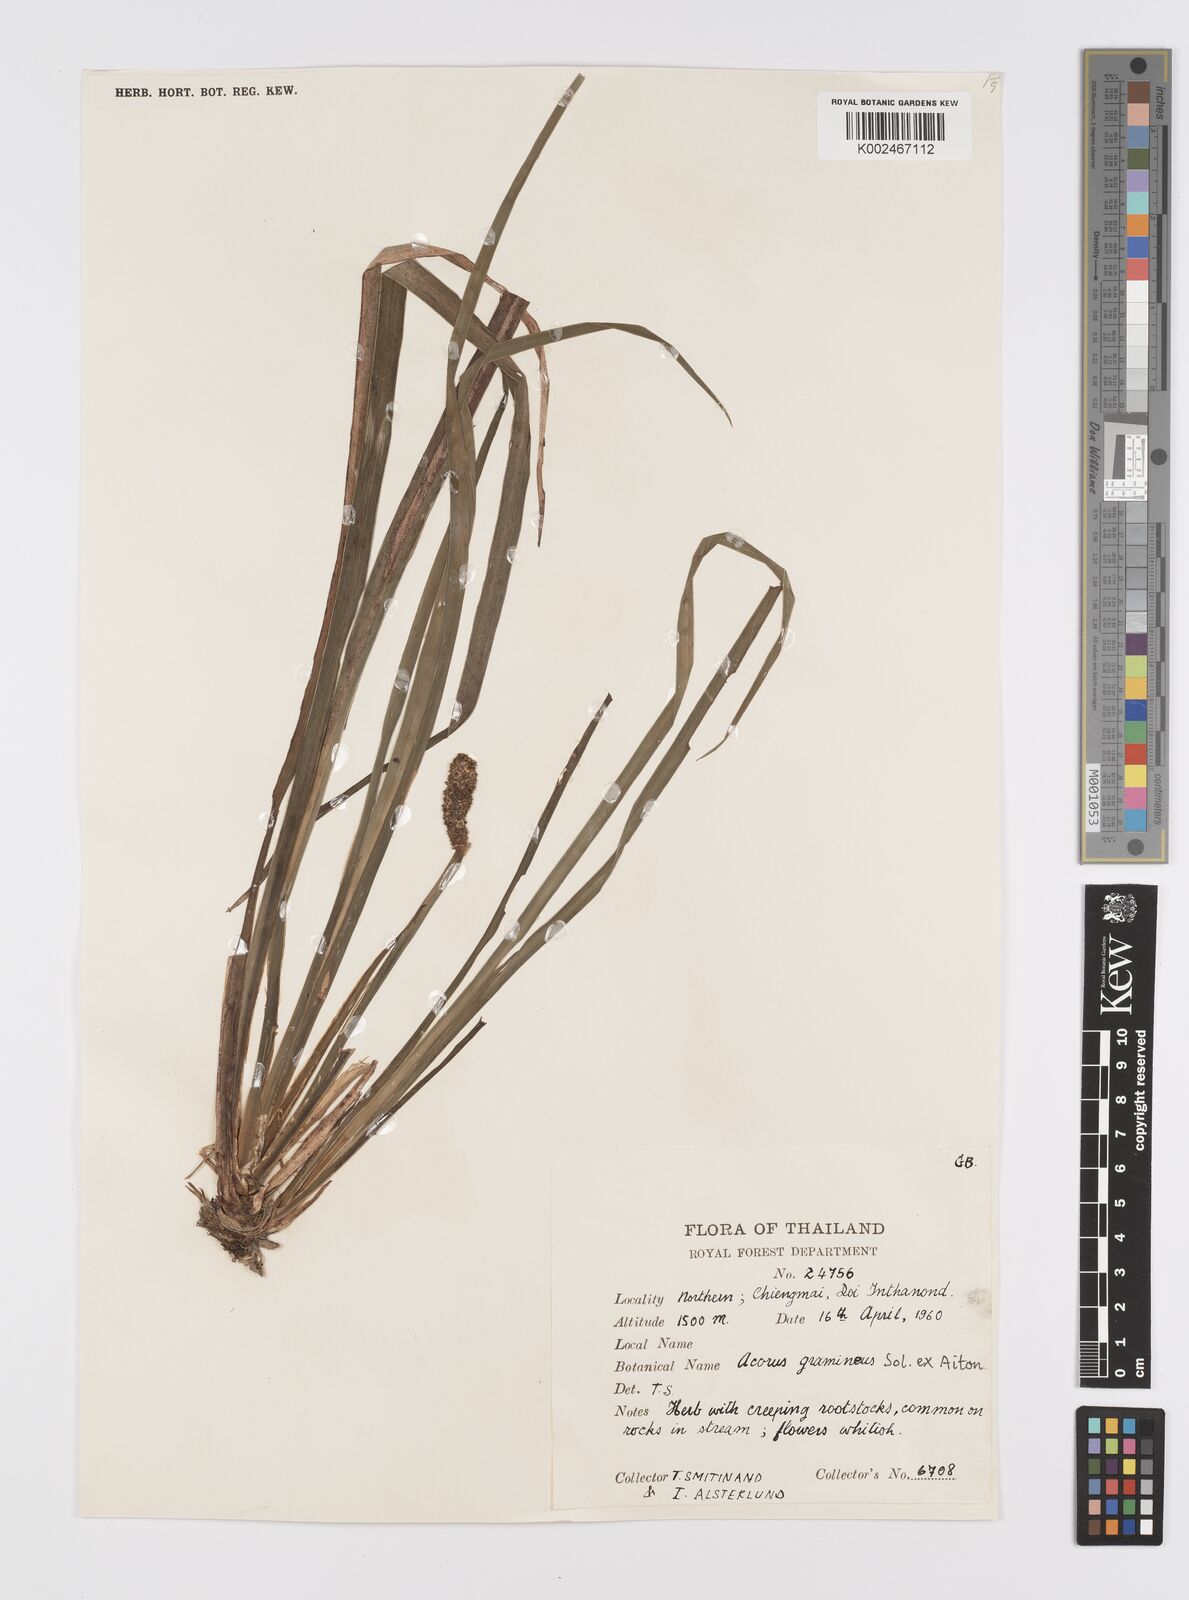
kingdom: Plantae
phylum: Tracheophyta
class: Liliopsida
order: Acorales
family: Acoraceae
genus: Acorus
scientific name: Acorus gramineus
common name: Slender sweet-flag
